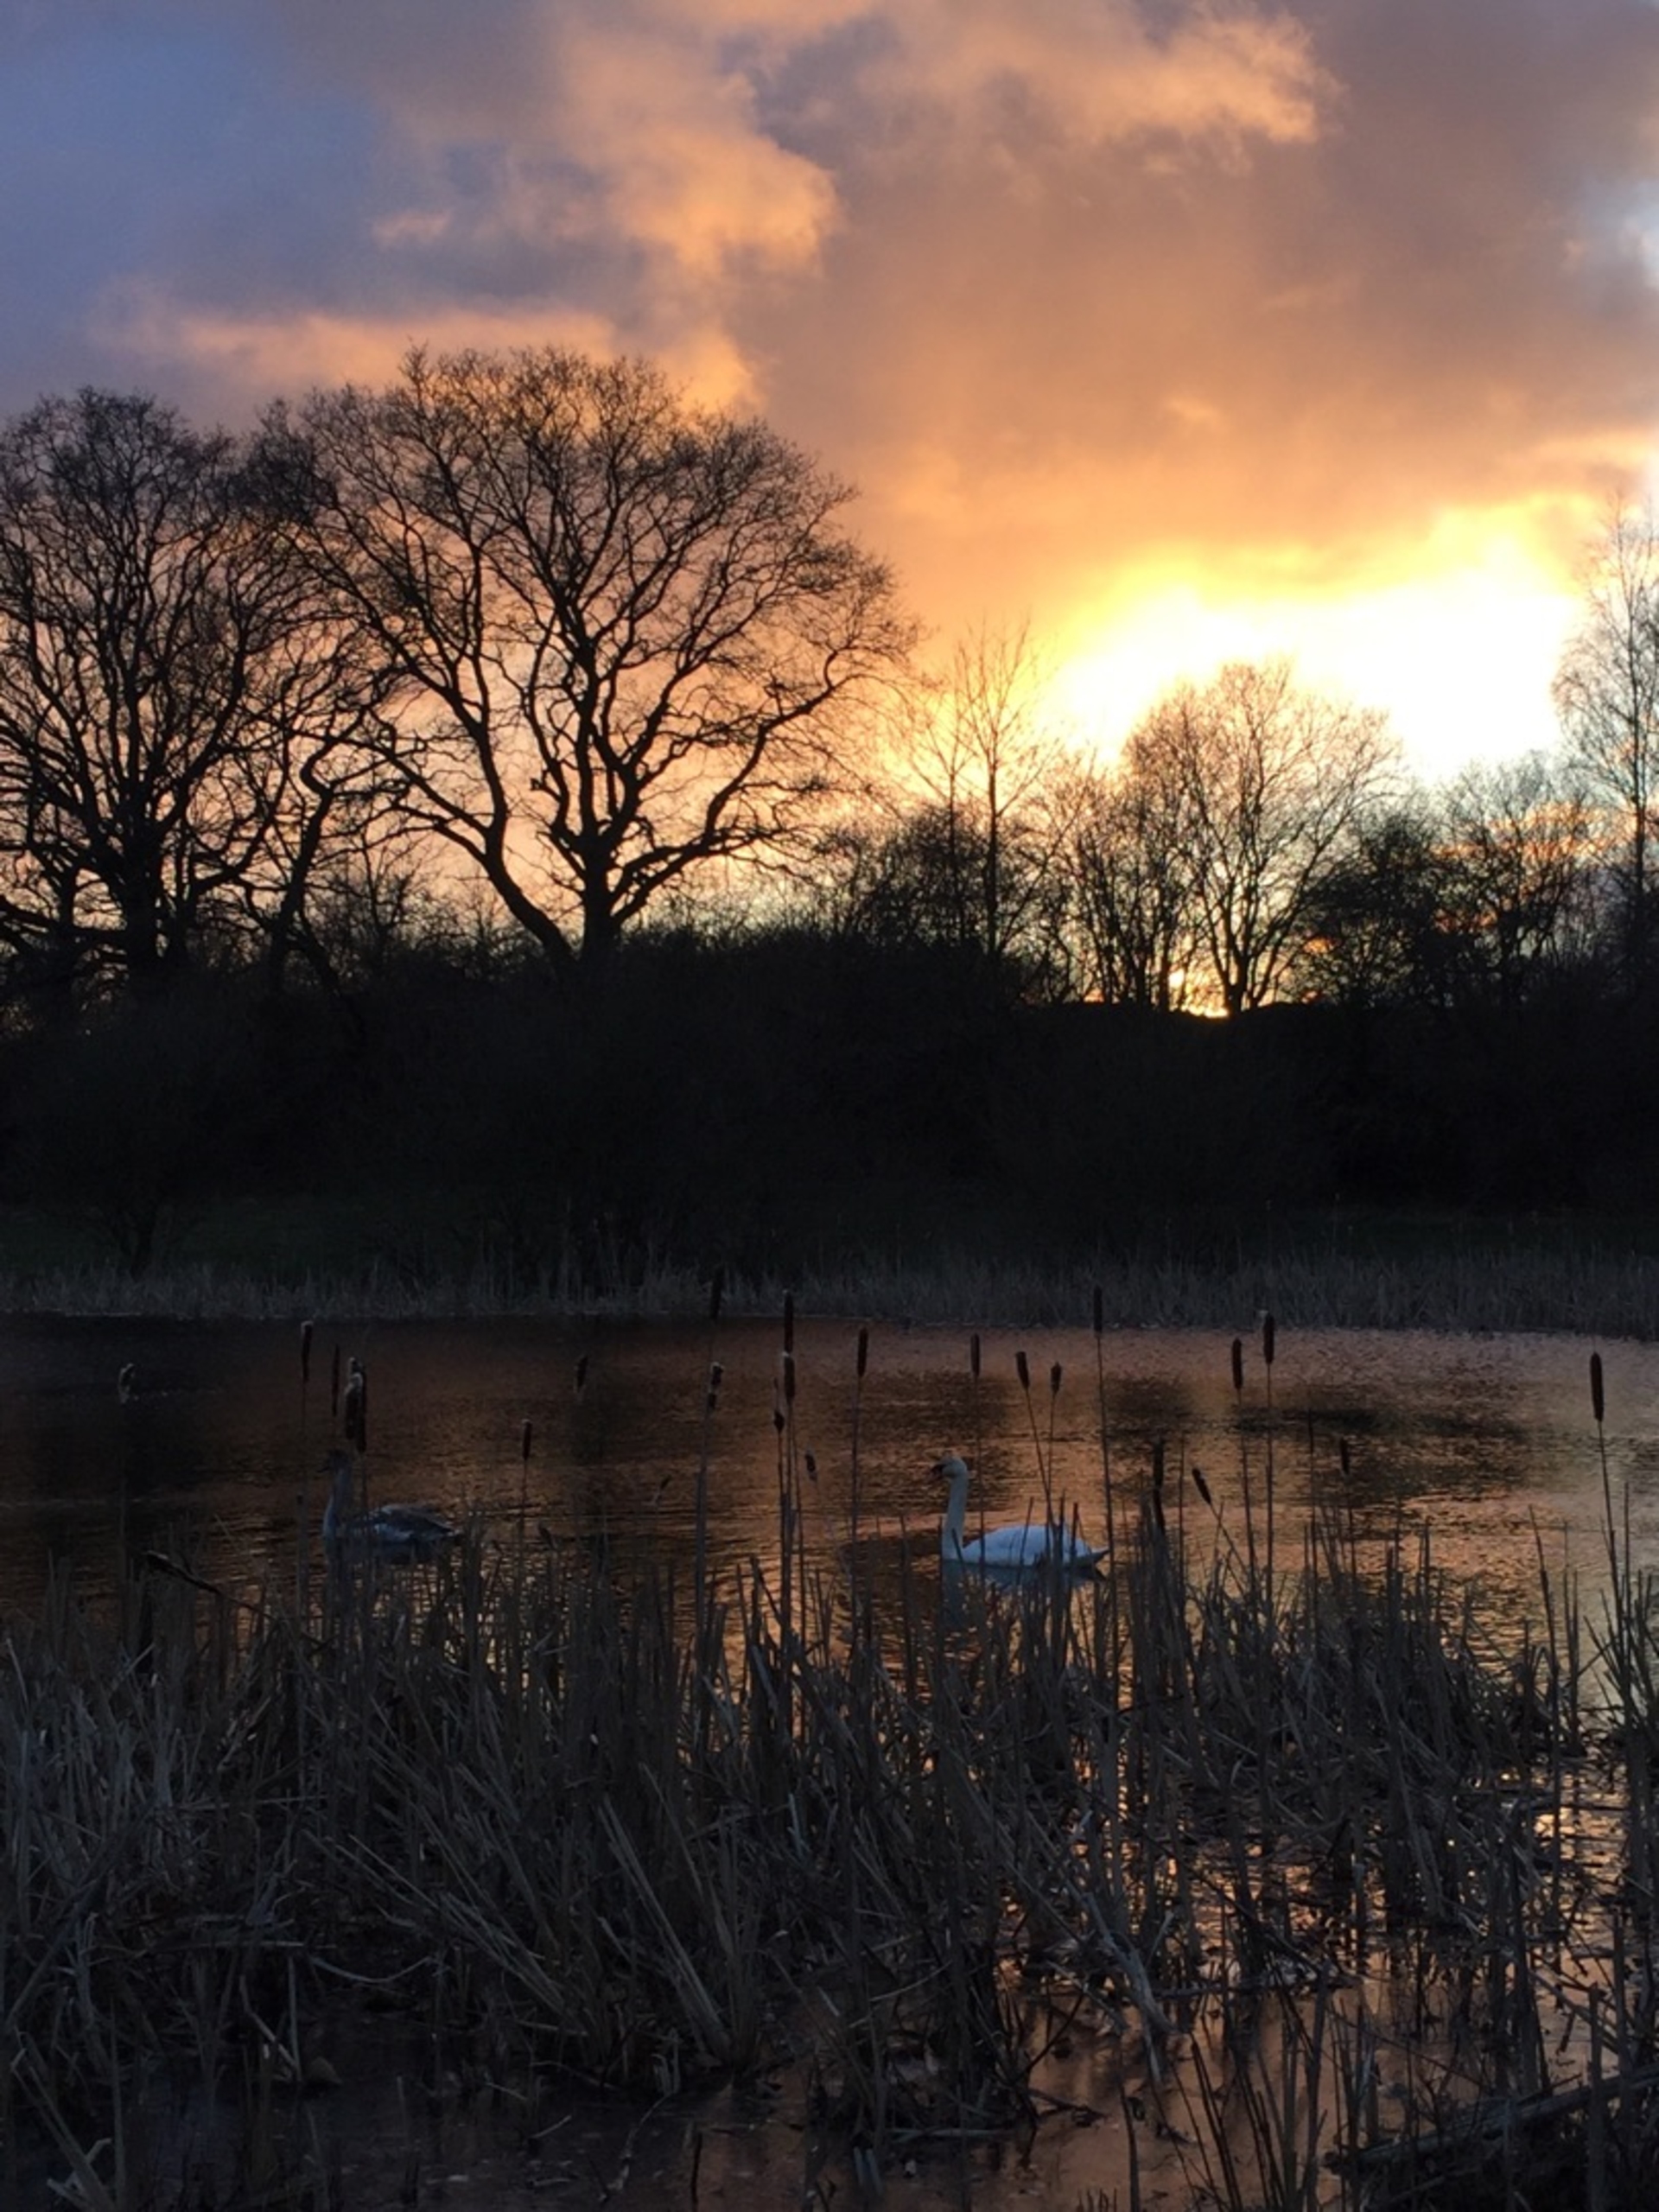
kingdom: Animalia
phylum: Chordata
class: Aves
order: Anseriformes
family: Anatidae
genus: Cygnus
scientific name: Cygnus olor
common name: Knopsvane
